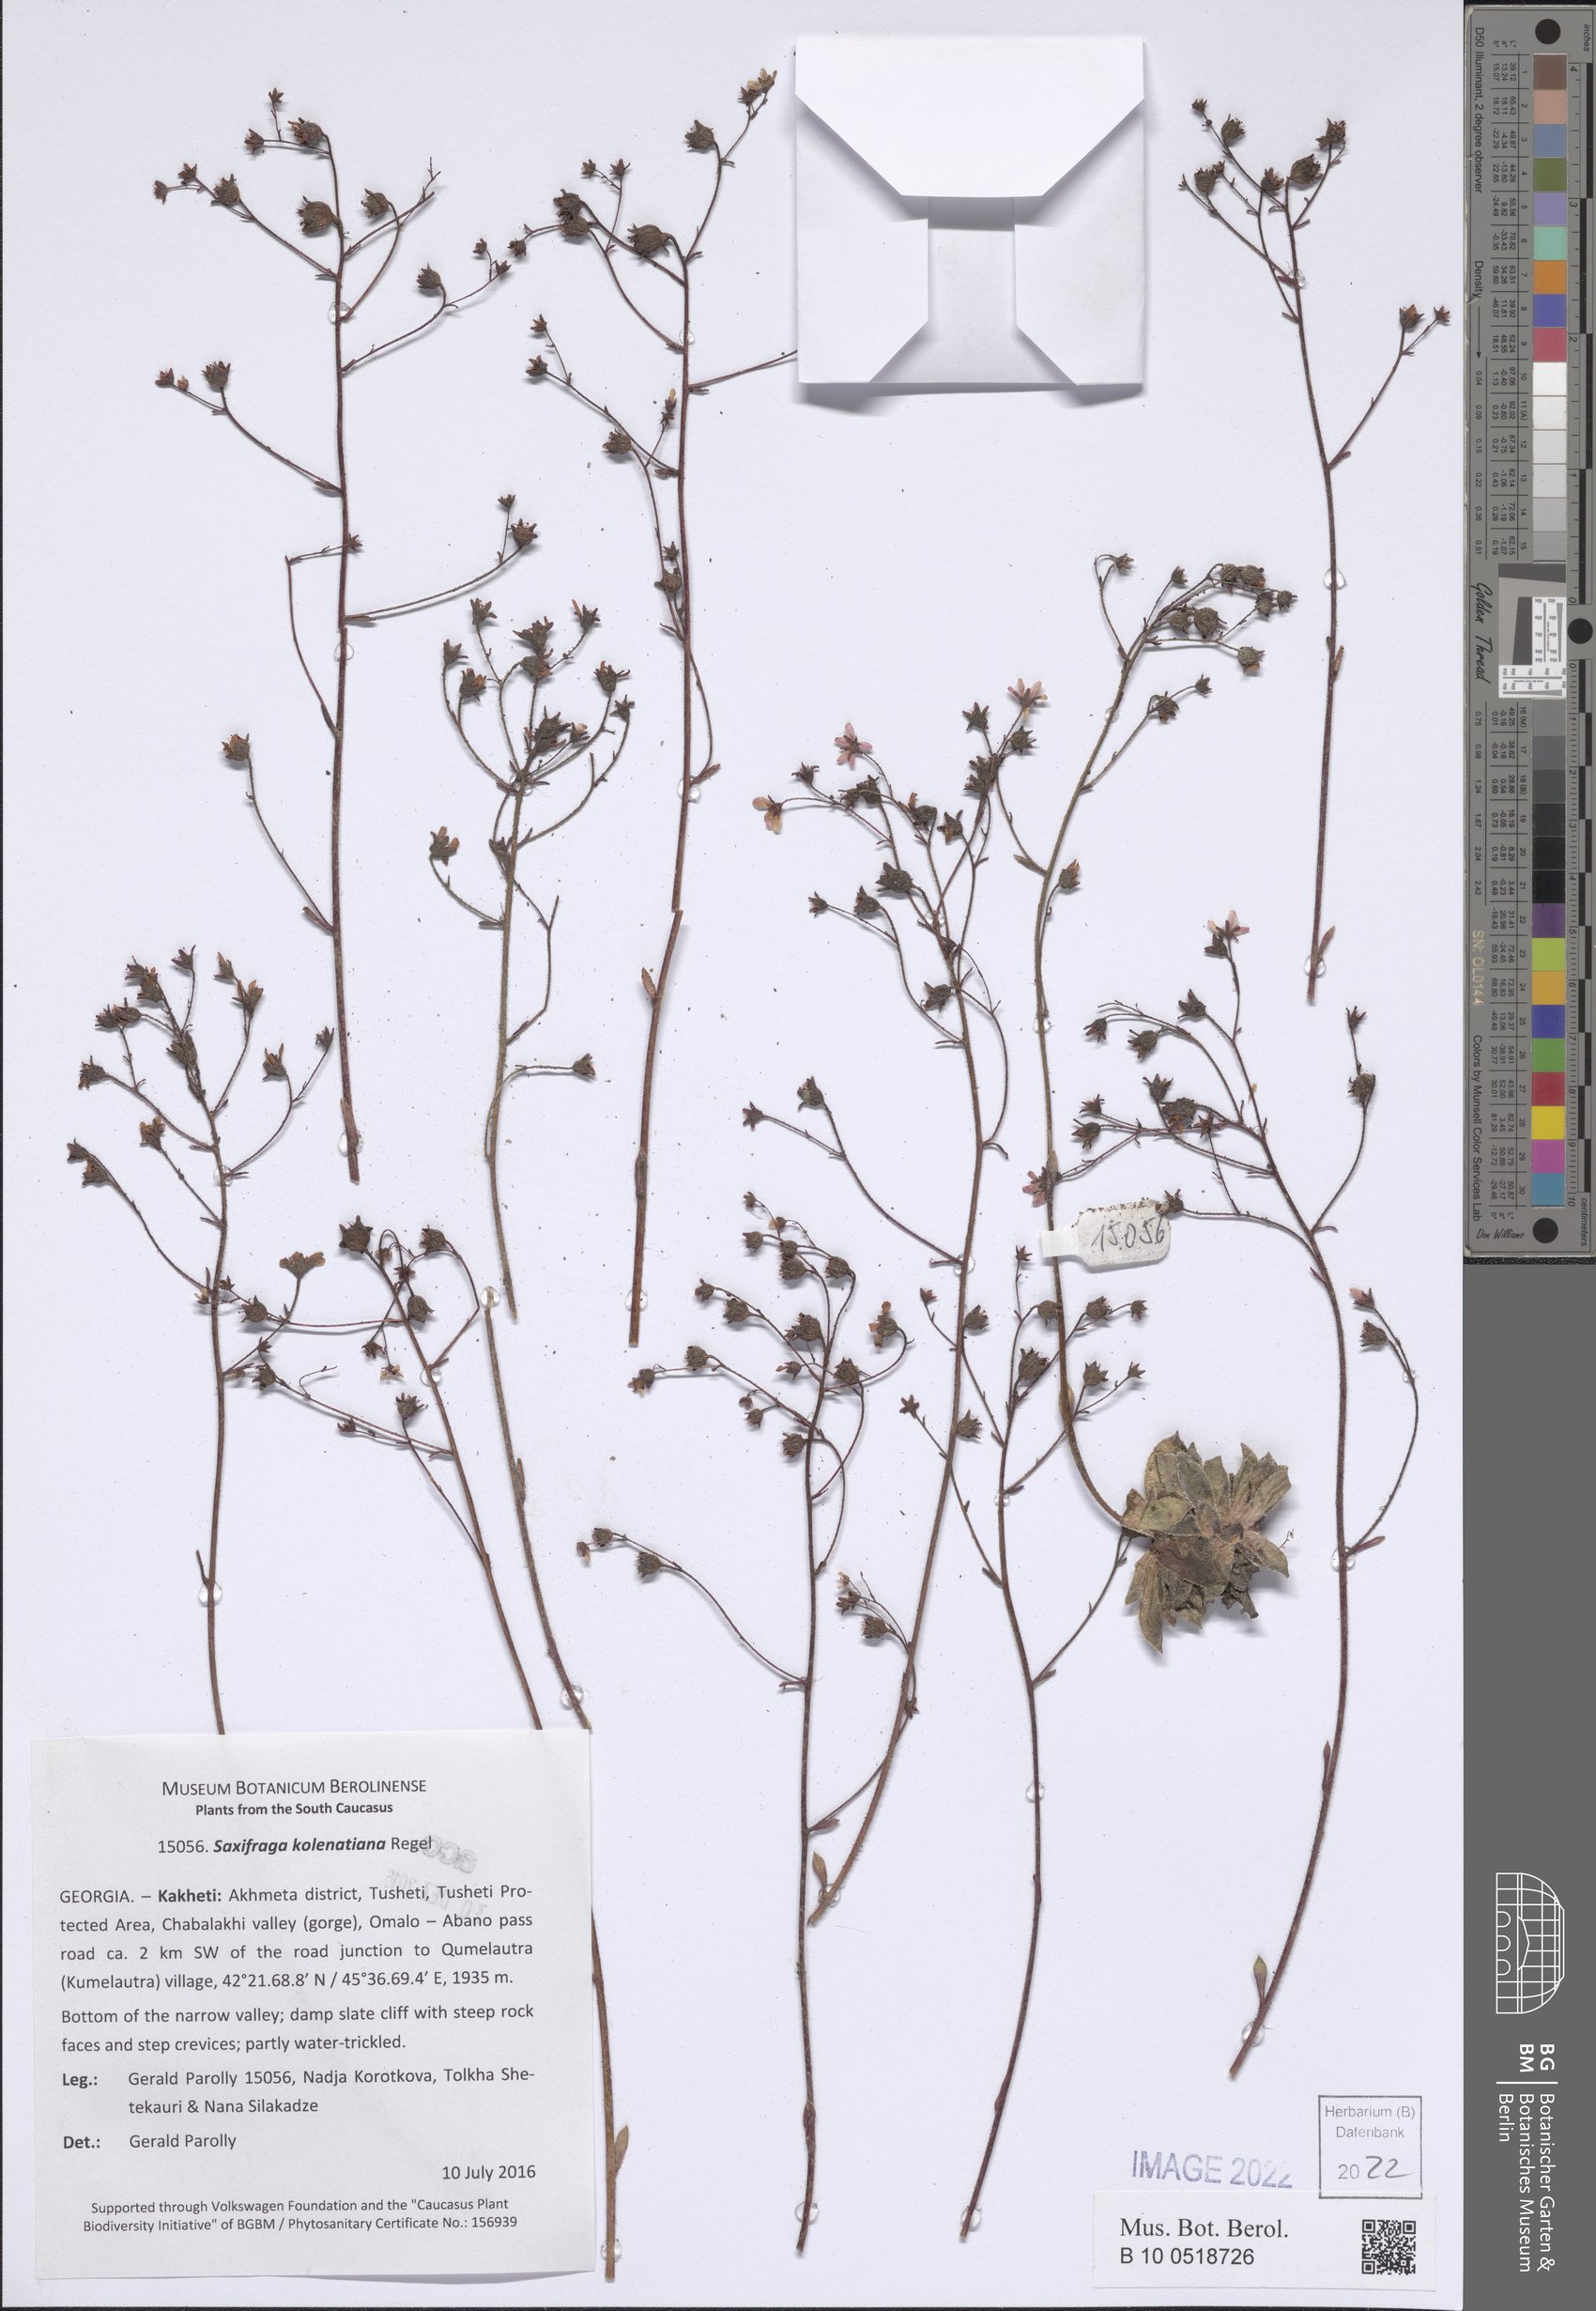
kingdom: Plantae
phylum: Tracheophyta
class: Magnoliopsida
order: Saxifragales
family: Saxifragaceae
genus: Saxifraga
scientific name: Saxifraga kolenatiana
